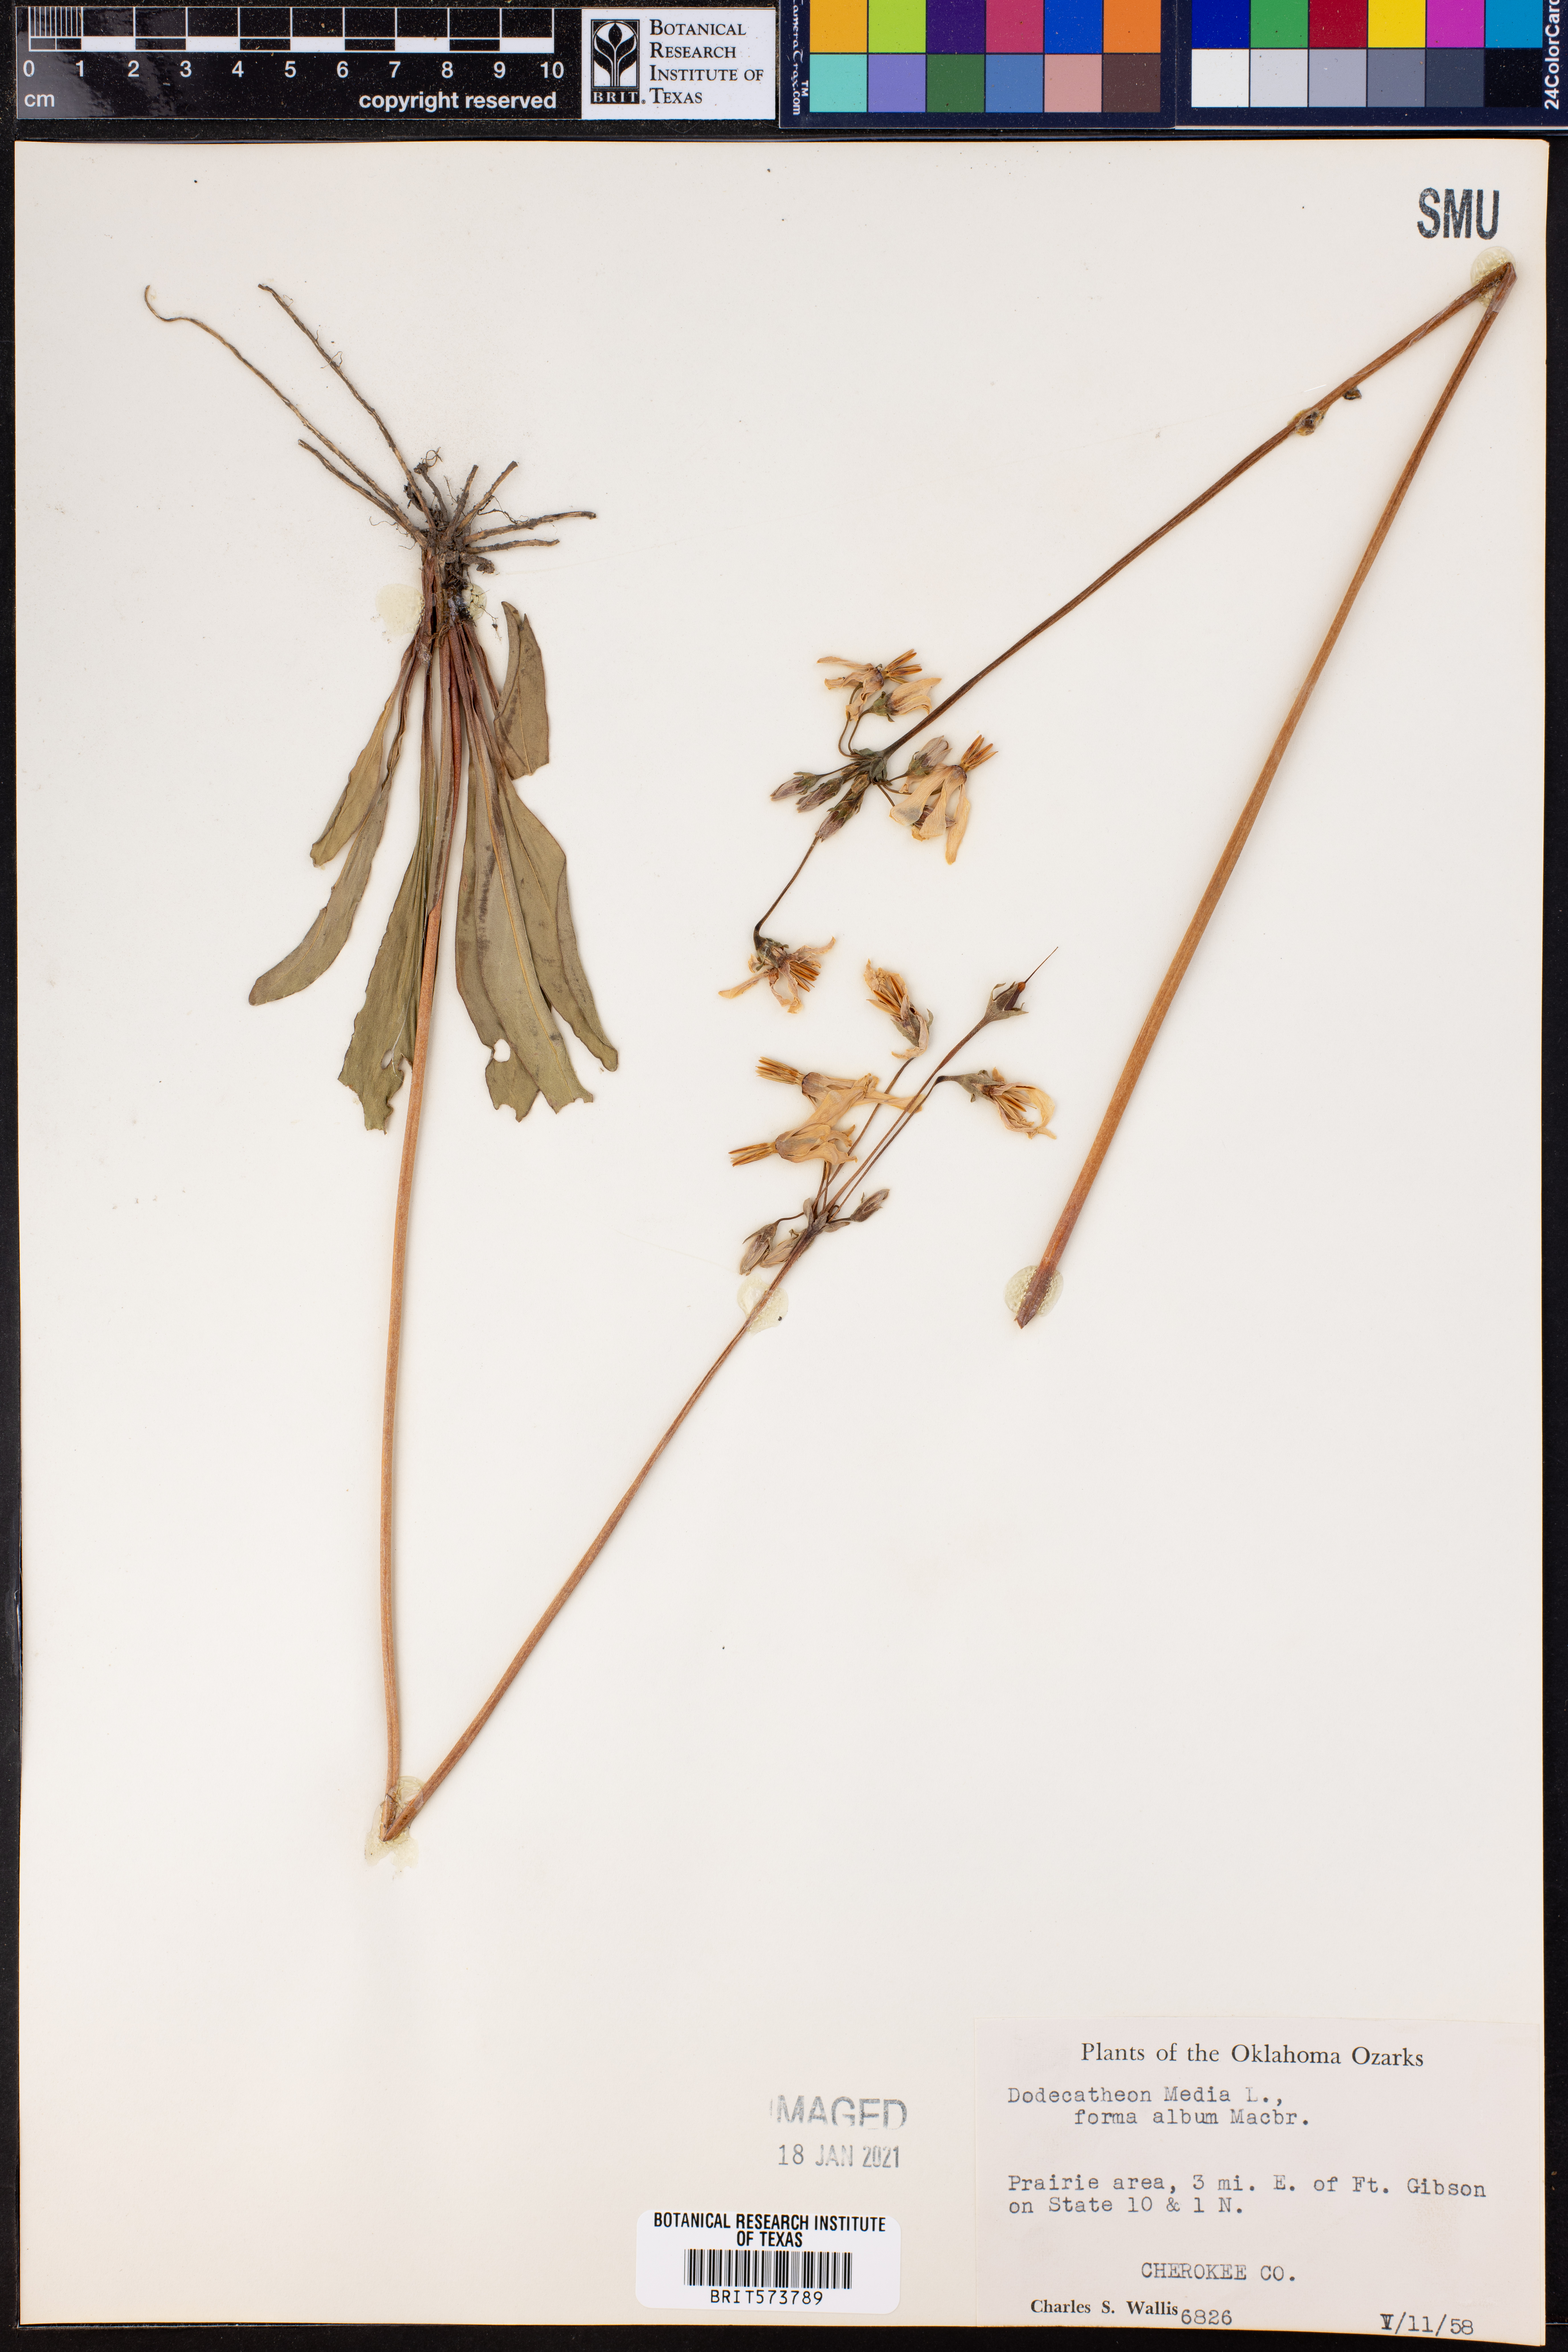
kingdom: Plantae
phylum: Tracheophyta
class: Magnoliopsida
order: Ericales
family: Primulaceae
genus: Dodecatheon
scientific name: Dodecatheon meadia
